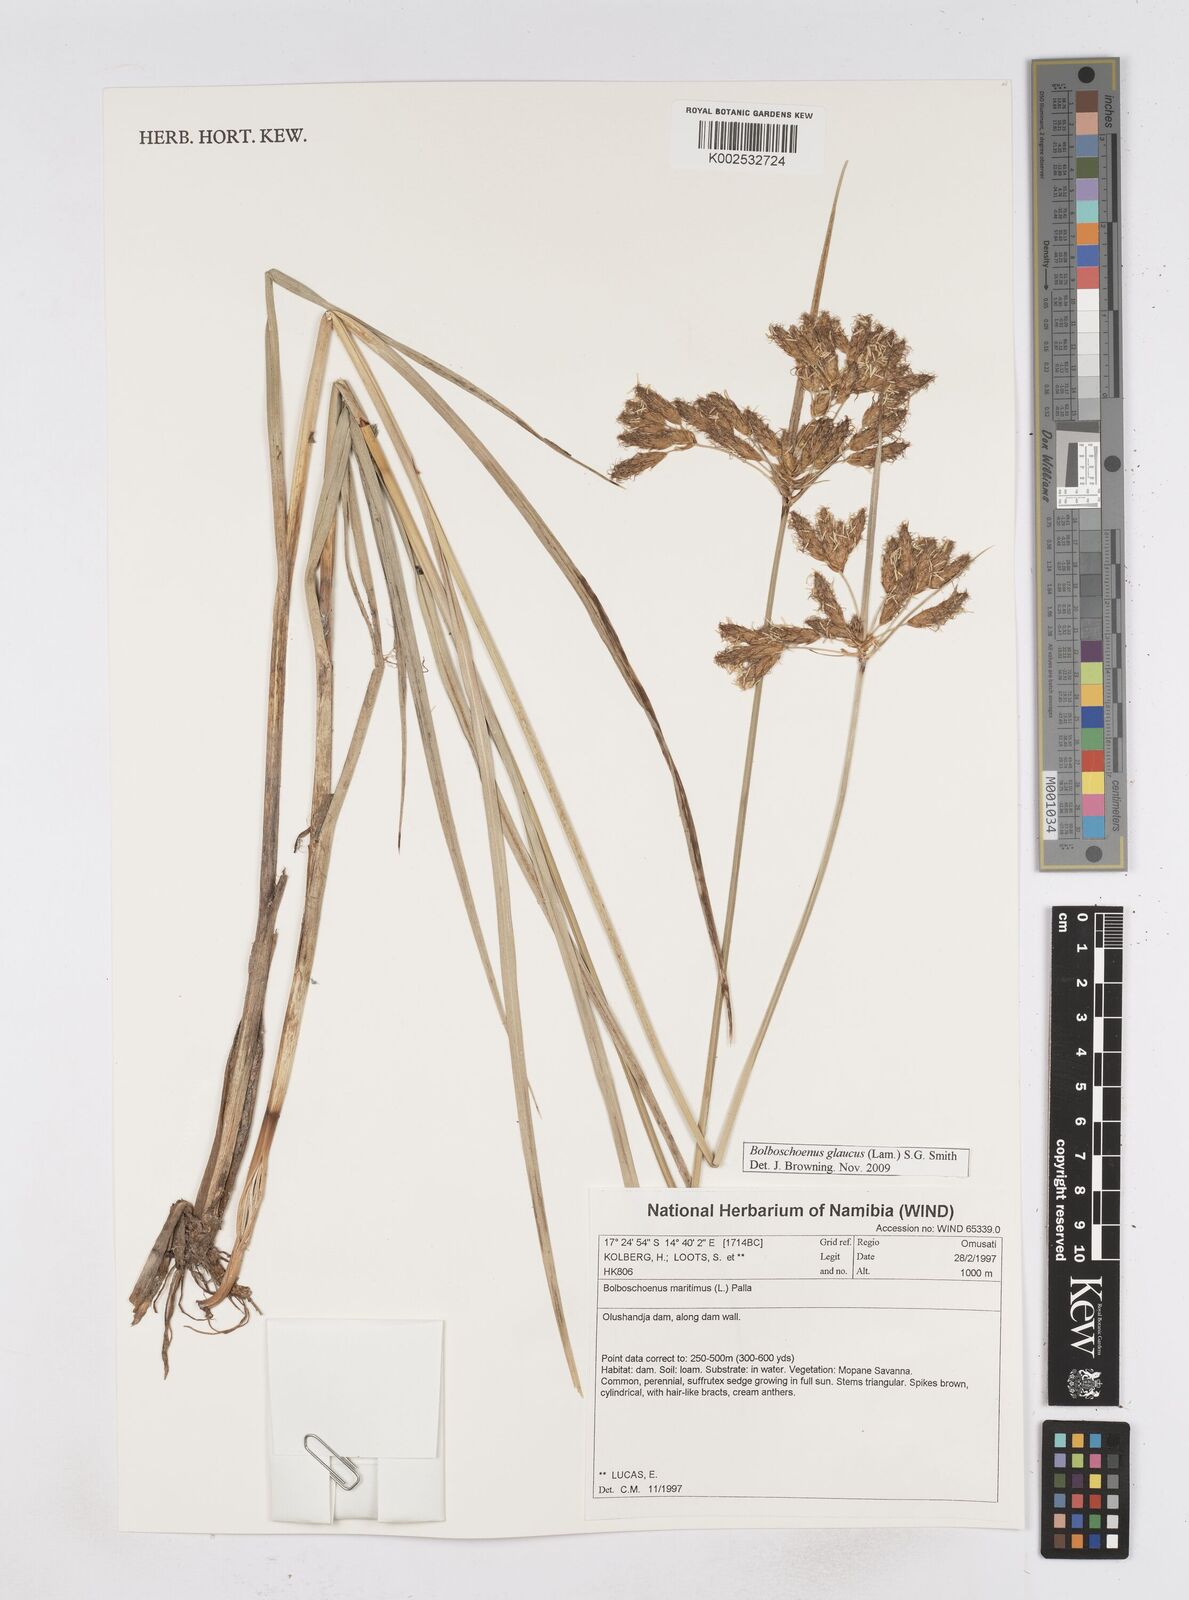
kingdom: Plantae
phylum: Tracheophyta
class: Liliopsida
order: Poales
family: Cyperaceae
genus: Bolboschoenus
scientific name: Bolboschoenus maritimus
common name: Sea club-rush
